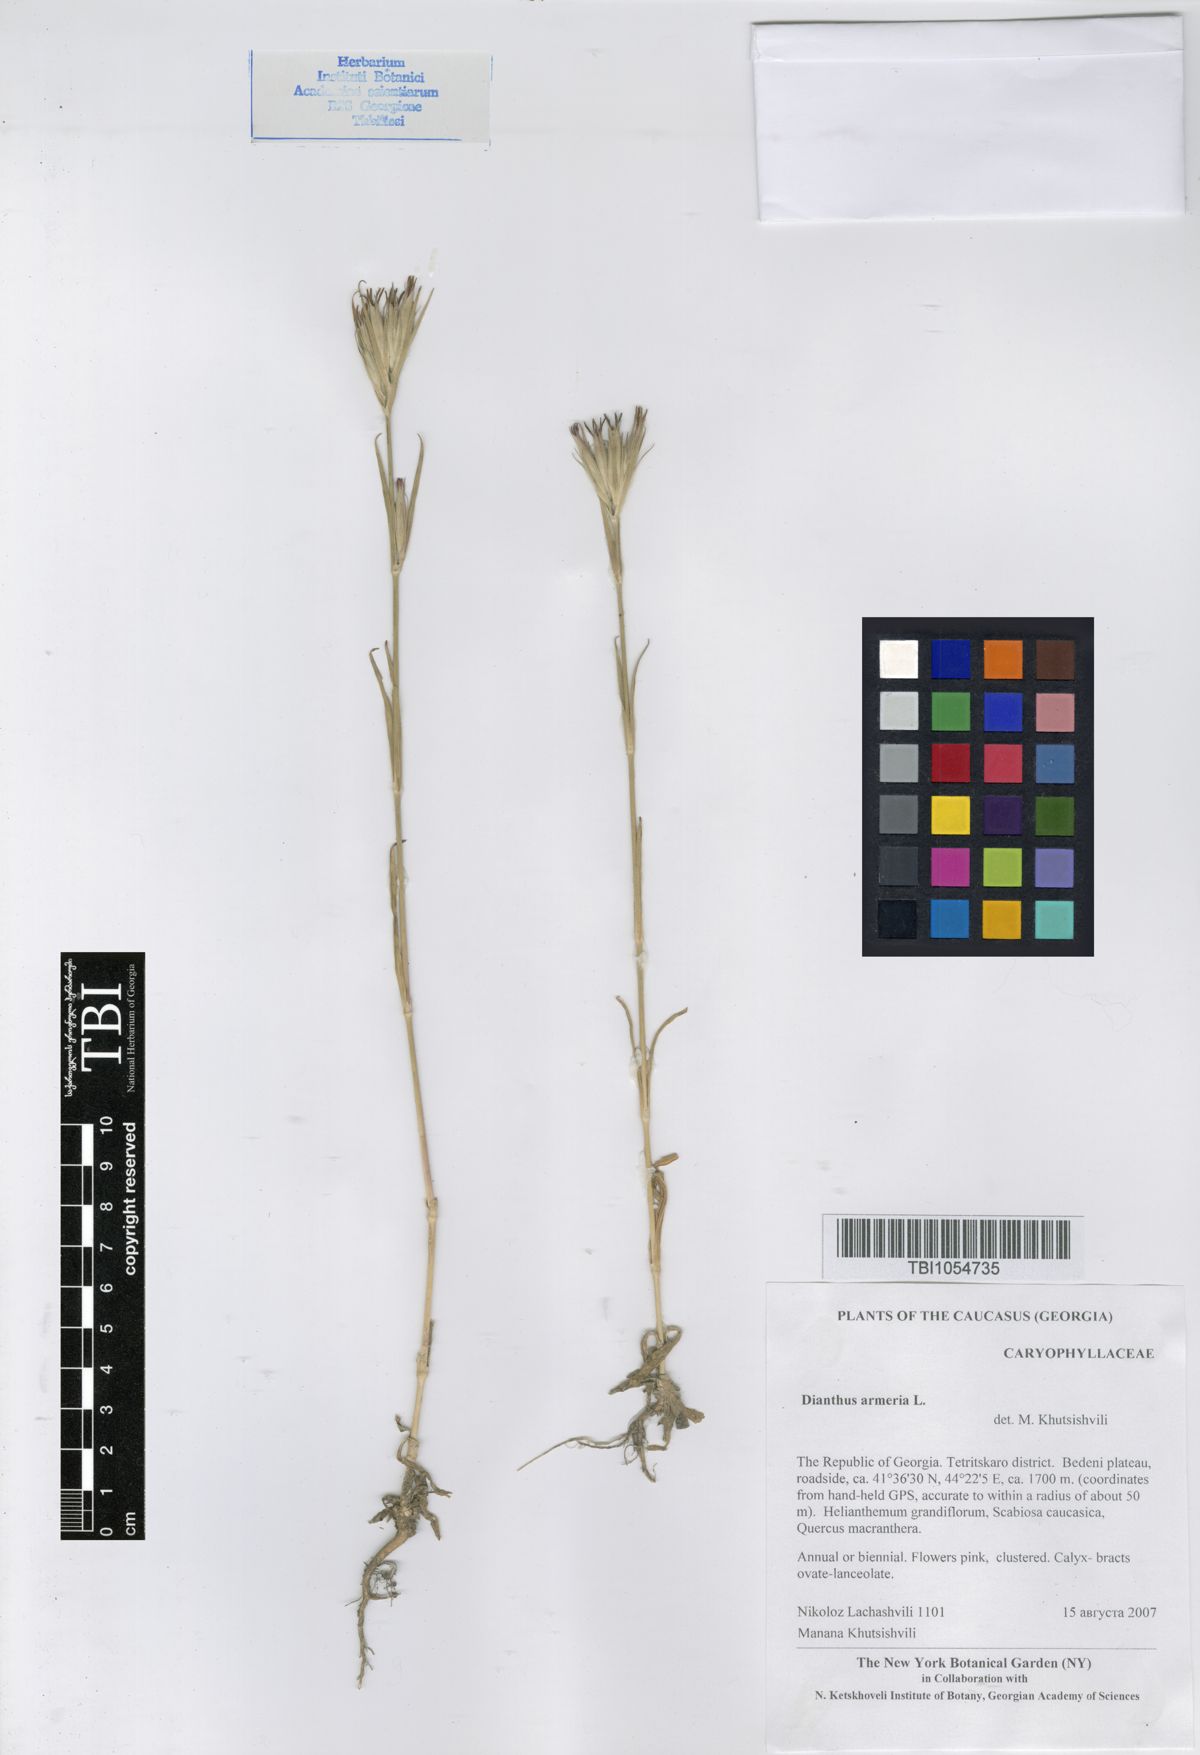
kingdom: Plantae
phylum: Tracheophyta
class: Magnoliopsida
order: Caryophyllales
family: Caryophyllaceae
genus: Dianthus
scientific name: Dianthus armeria
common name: Deptford pink
